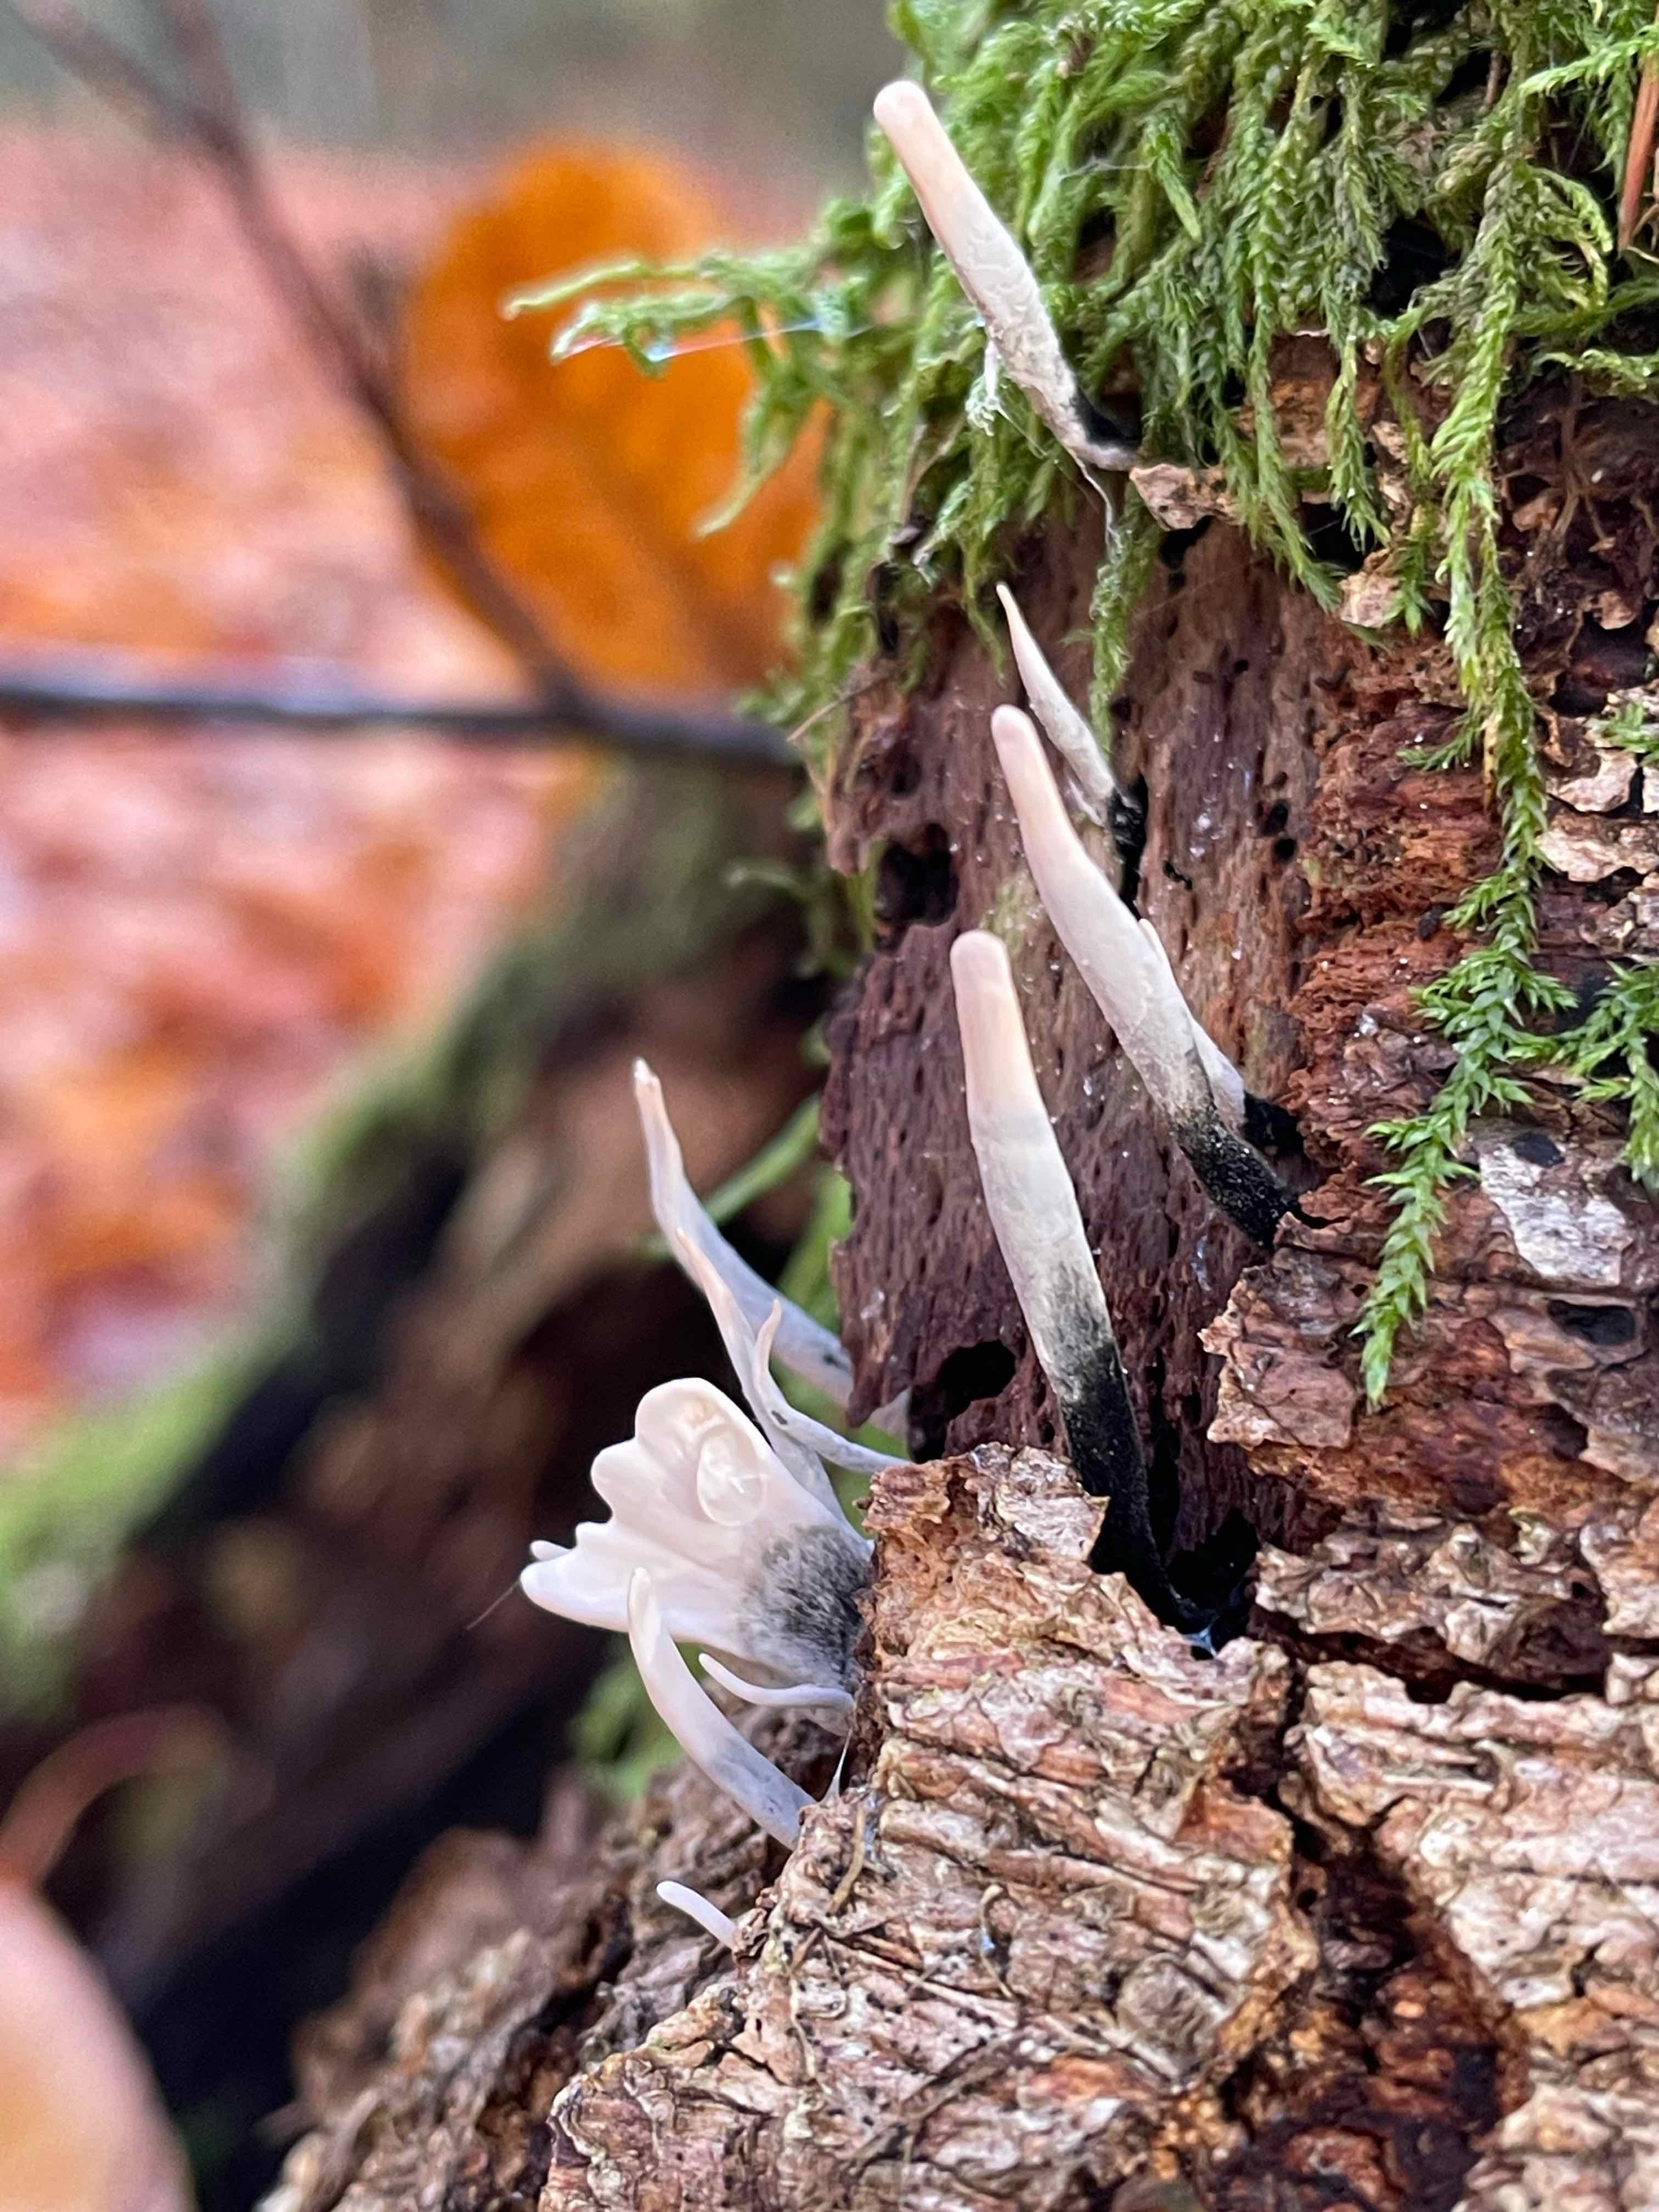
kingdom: Fungi
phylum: Ascomycota
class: Sordariomycetes
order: Xylariales
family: Xylariaceae
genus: Xylaria
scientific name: Xylaria hypoxylon
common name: grenet stødsvamp
